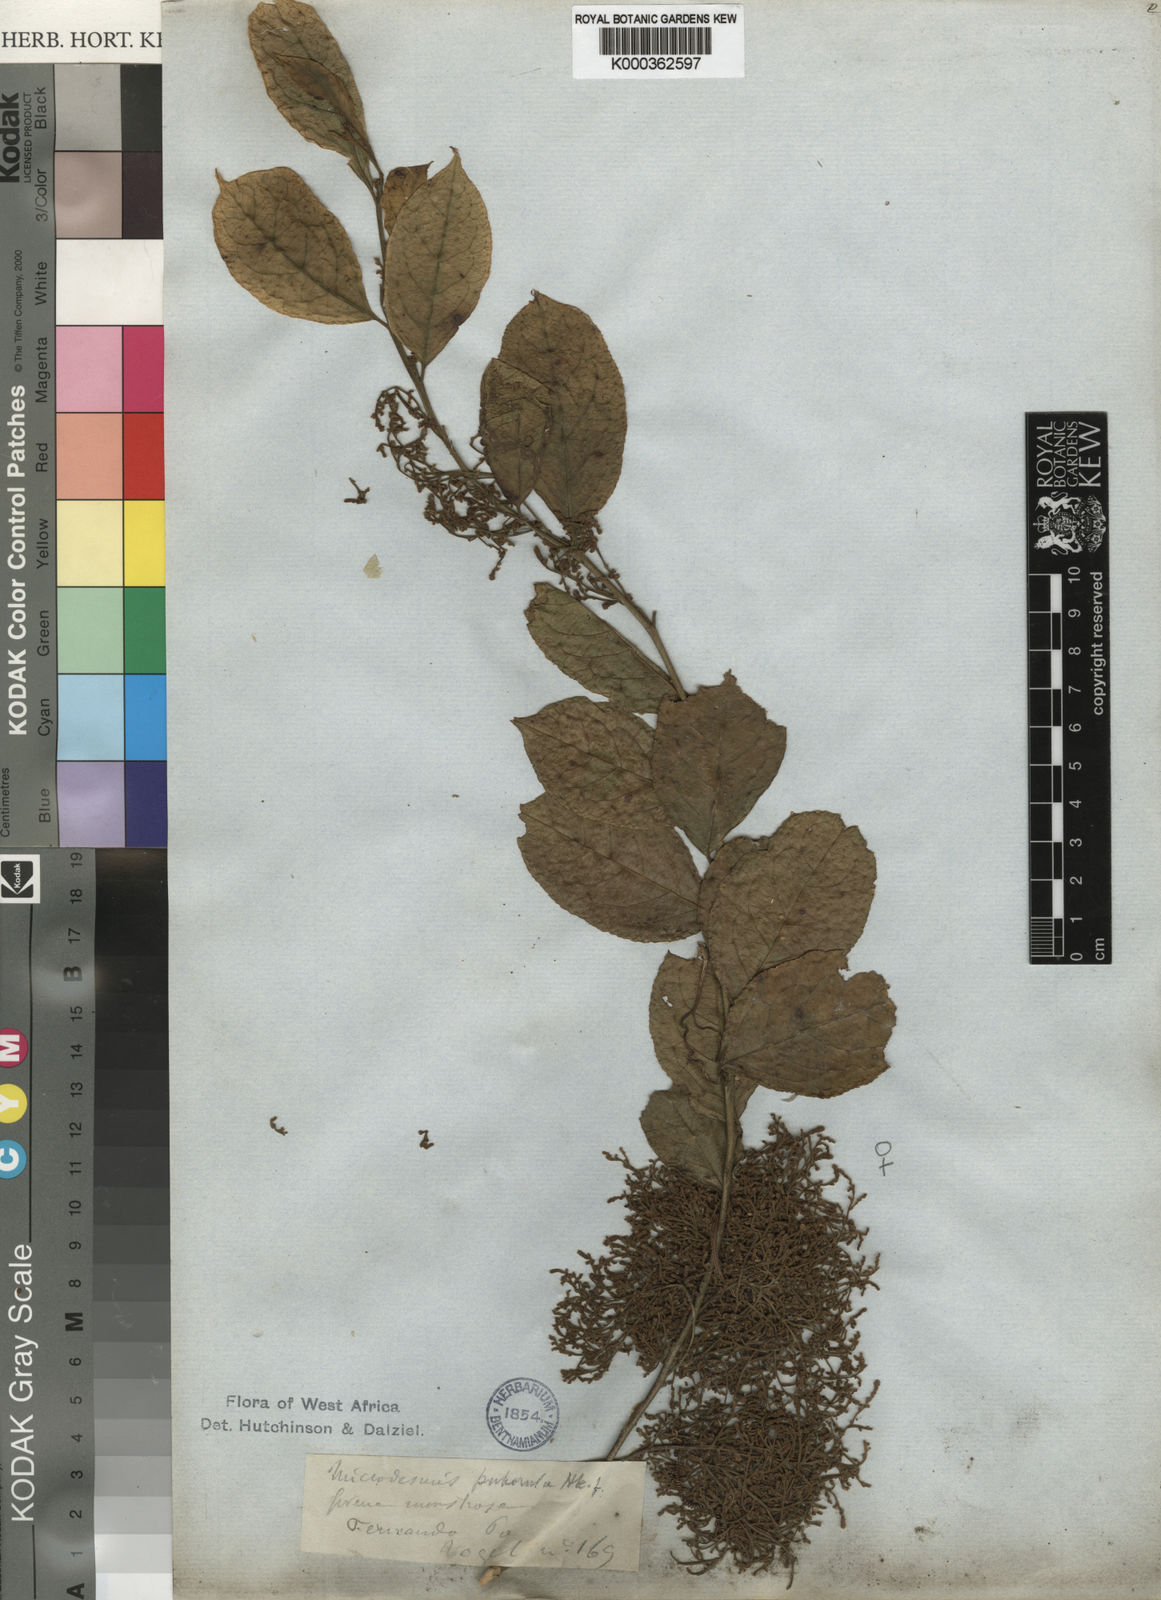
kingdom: Plantae
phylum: Tracheophyta
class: Magnoliopsida
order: Malpighiales
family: Pandaceae
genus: Microdesmis
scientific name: Microdesmis puberula
